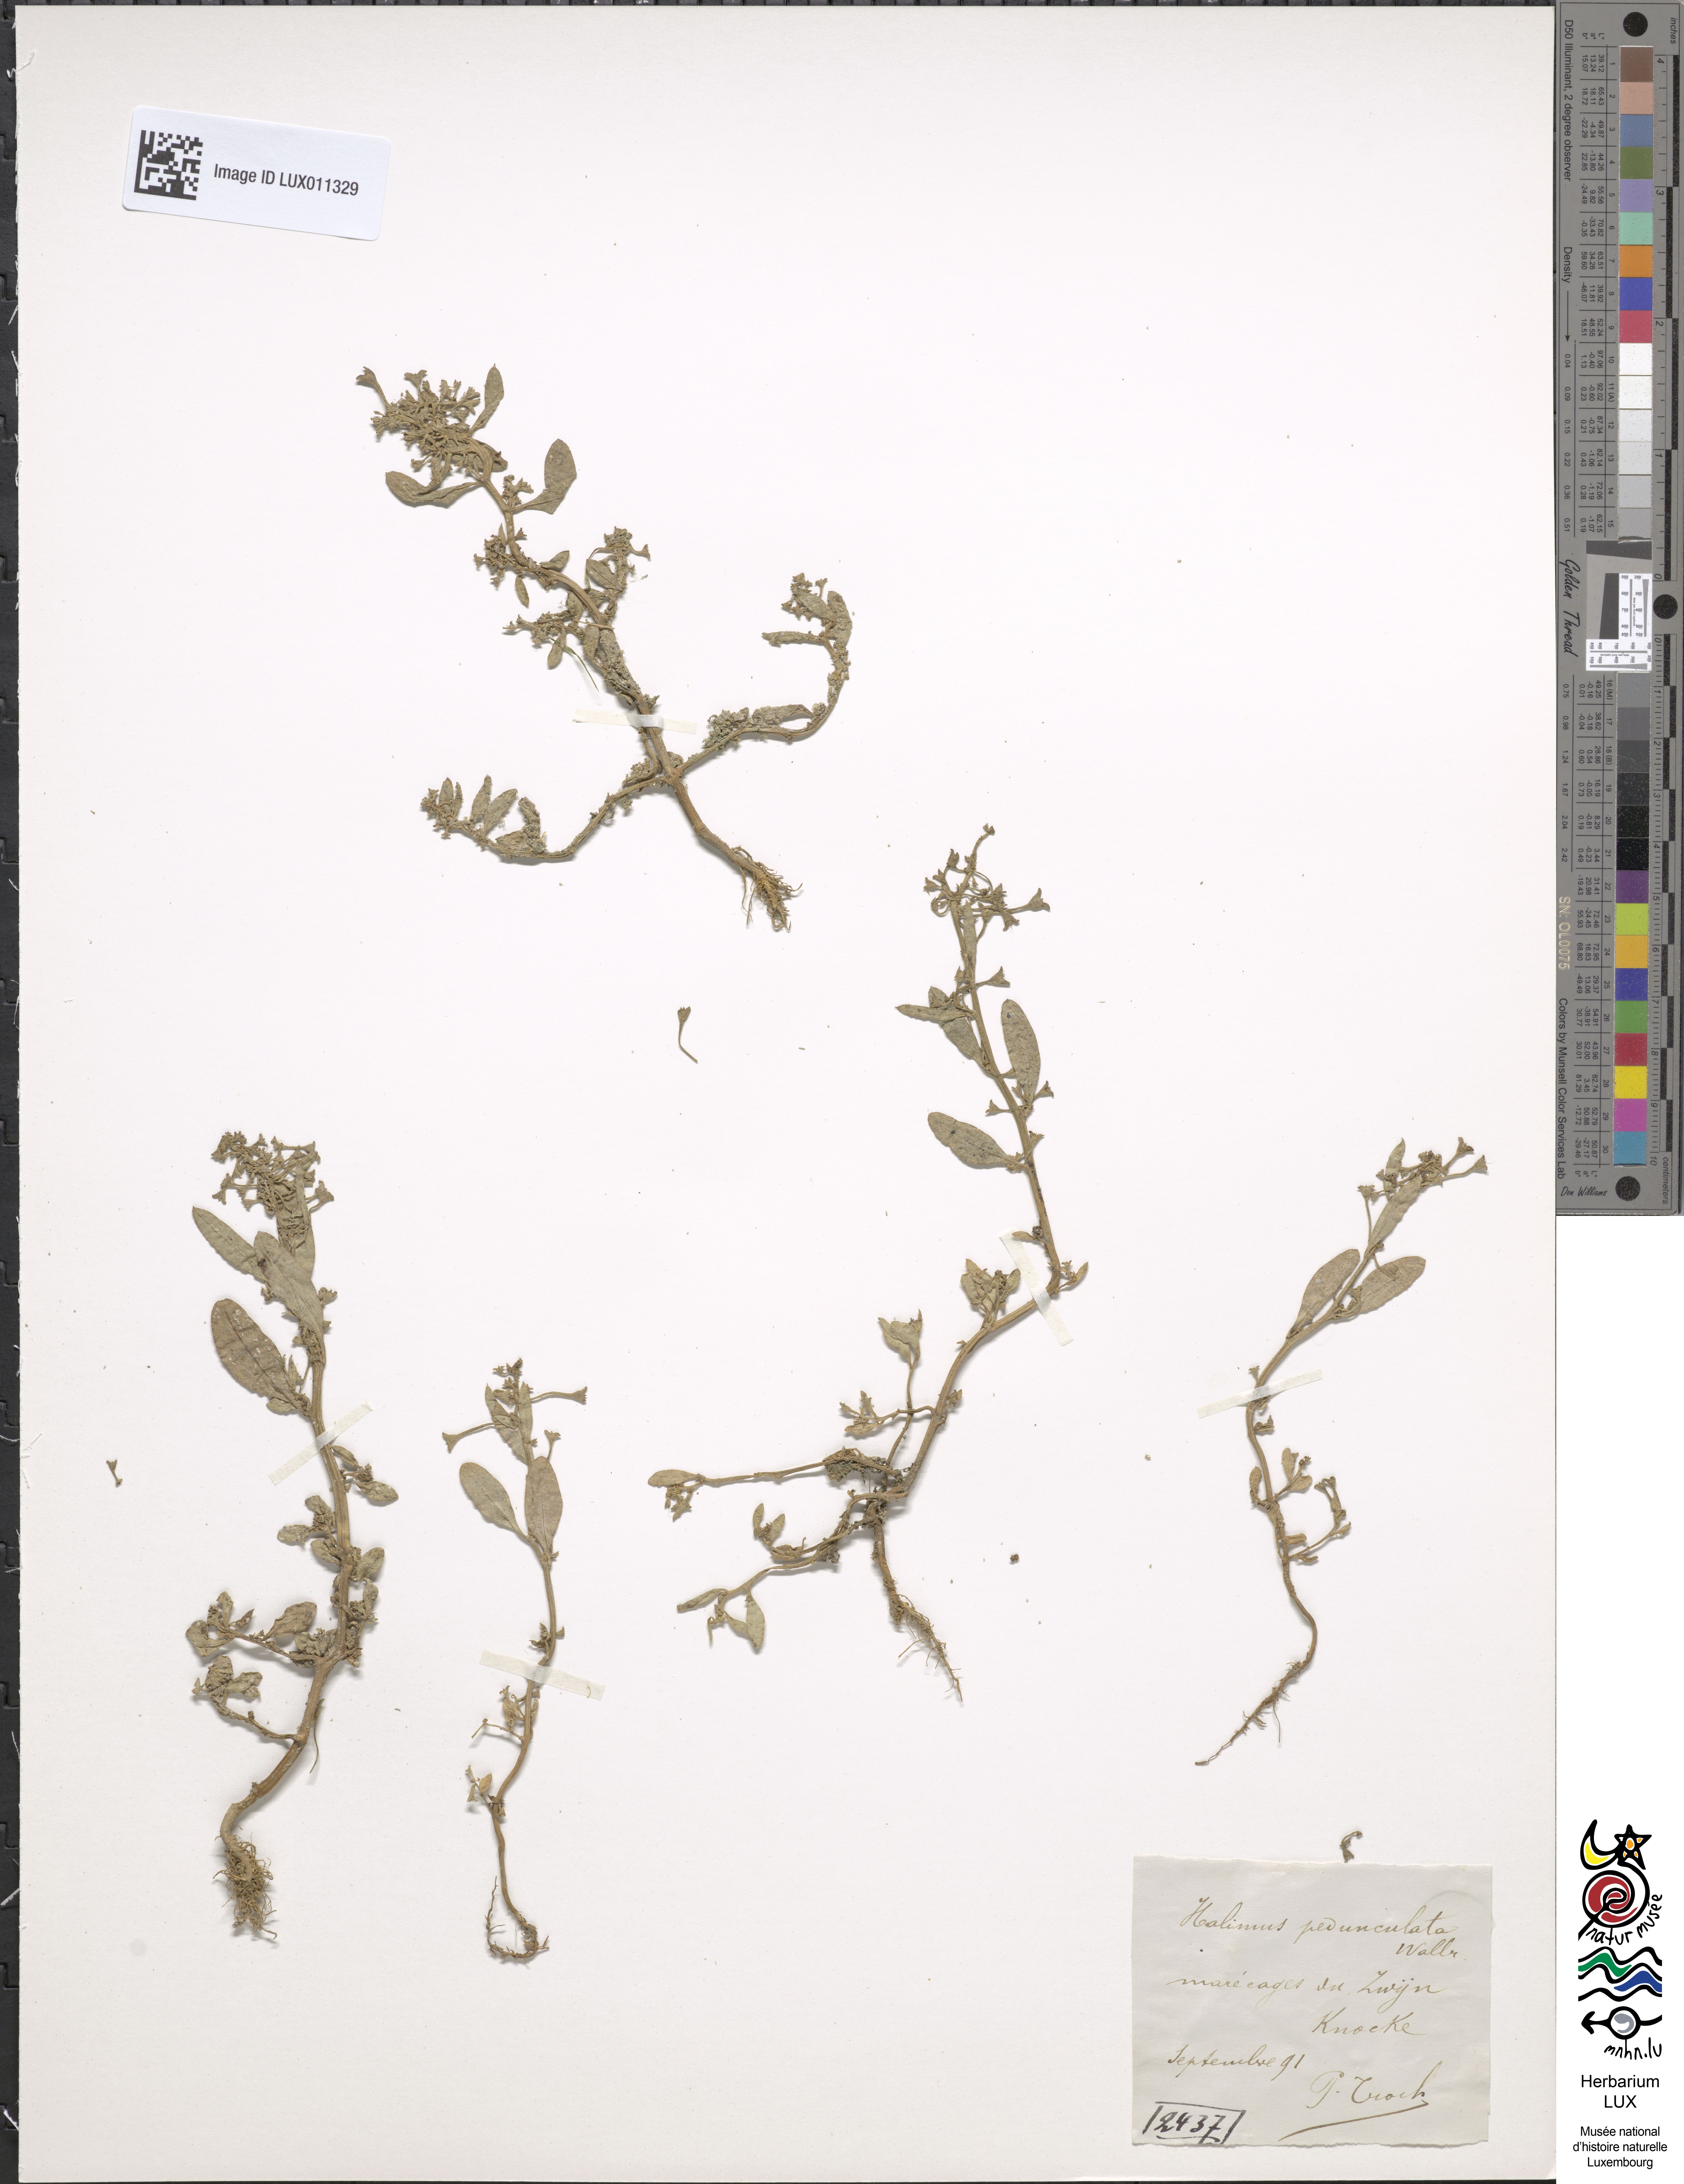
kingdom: Plantae
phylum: Tracheophyta
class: Magnoliopsida
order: Caryophyllales
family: Amaranthaceae
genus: Halimione
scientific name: Halimione pedunculata
